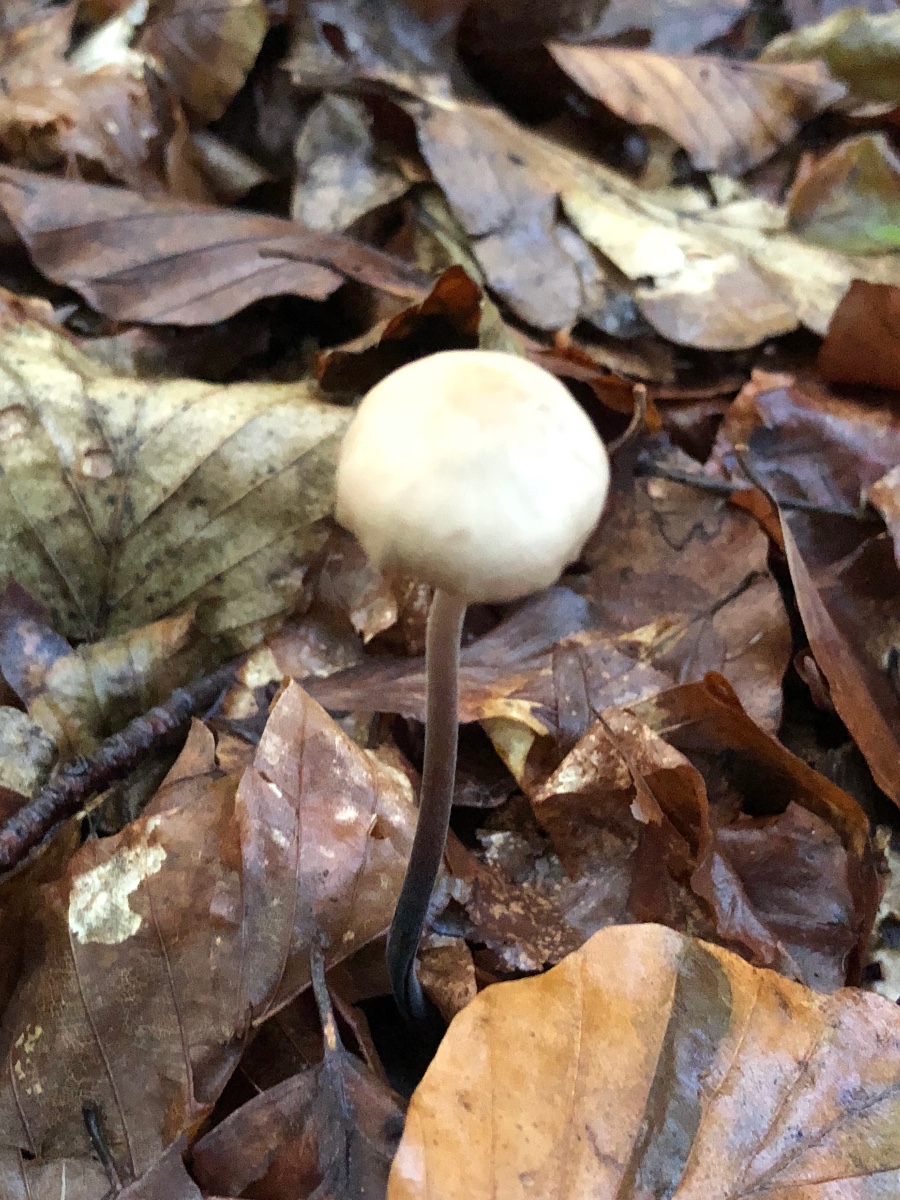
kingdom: Fungi
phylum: Basidiomycota
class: Agaricomycetes
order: Agaricales
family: Omphalotaceae
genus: Mycetinis
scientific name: Mycetinis alliaceus
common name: stor løghat
